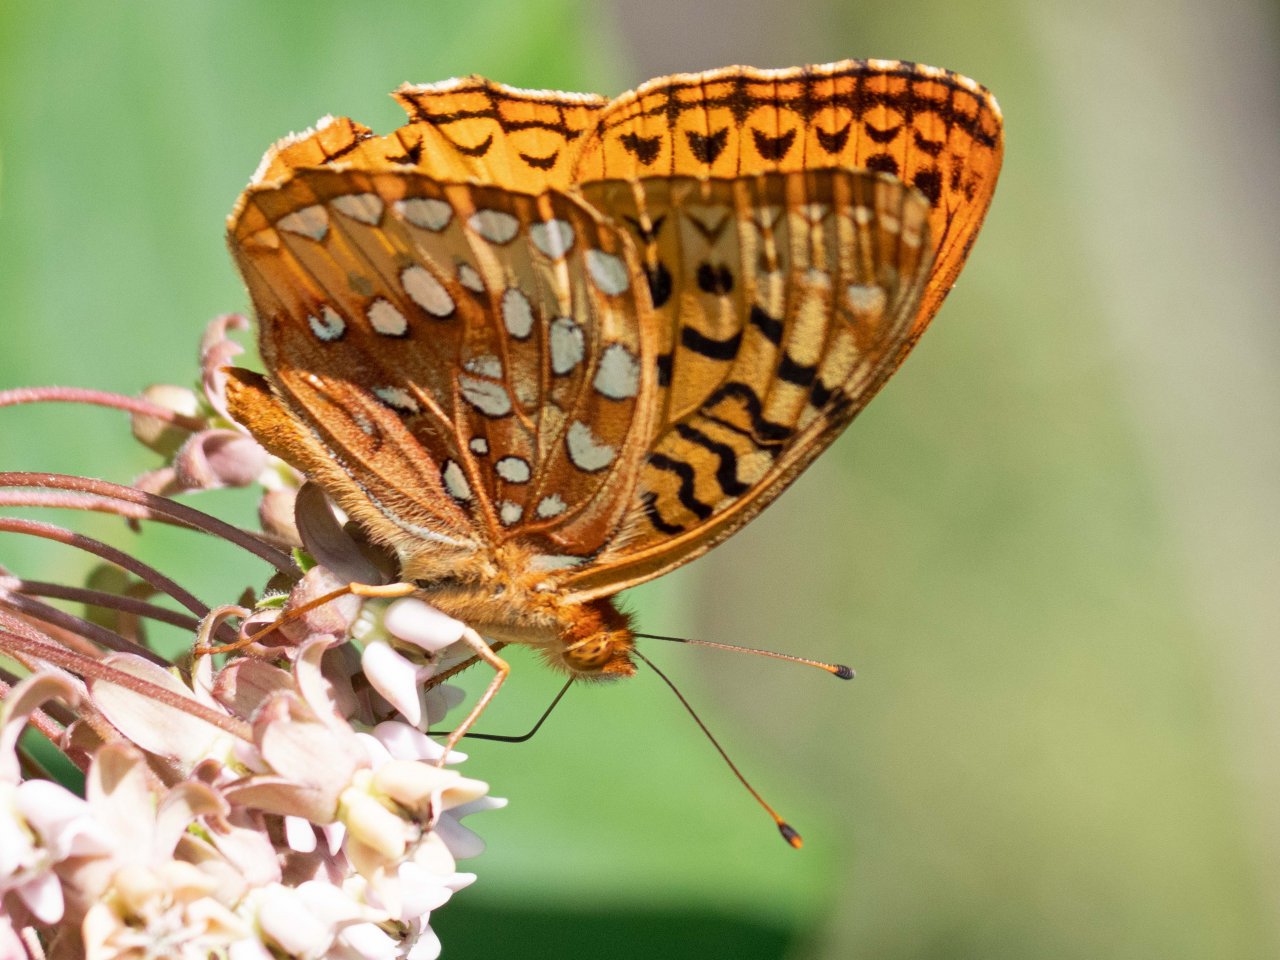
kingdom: Animalia
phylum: Arthropoda
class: Insecta
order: Lepidoptera
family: Nymphalidae
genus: Speyeria
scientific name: Speyeria cybele
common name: Great Spangled Fritillary
